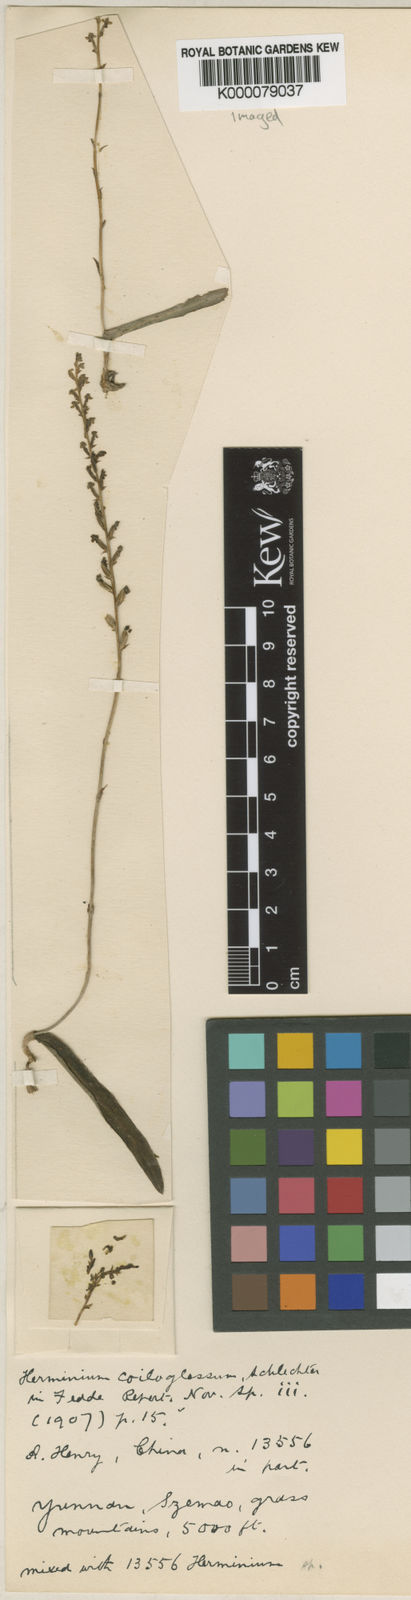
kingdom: Plantae
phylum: Tracheophyta
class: Liliopsida
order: Asparagales
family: Orchidaceae
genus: Herminium
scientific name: Herminium coiloglossum
